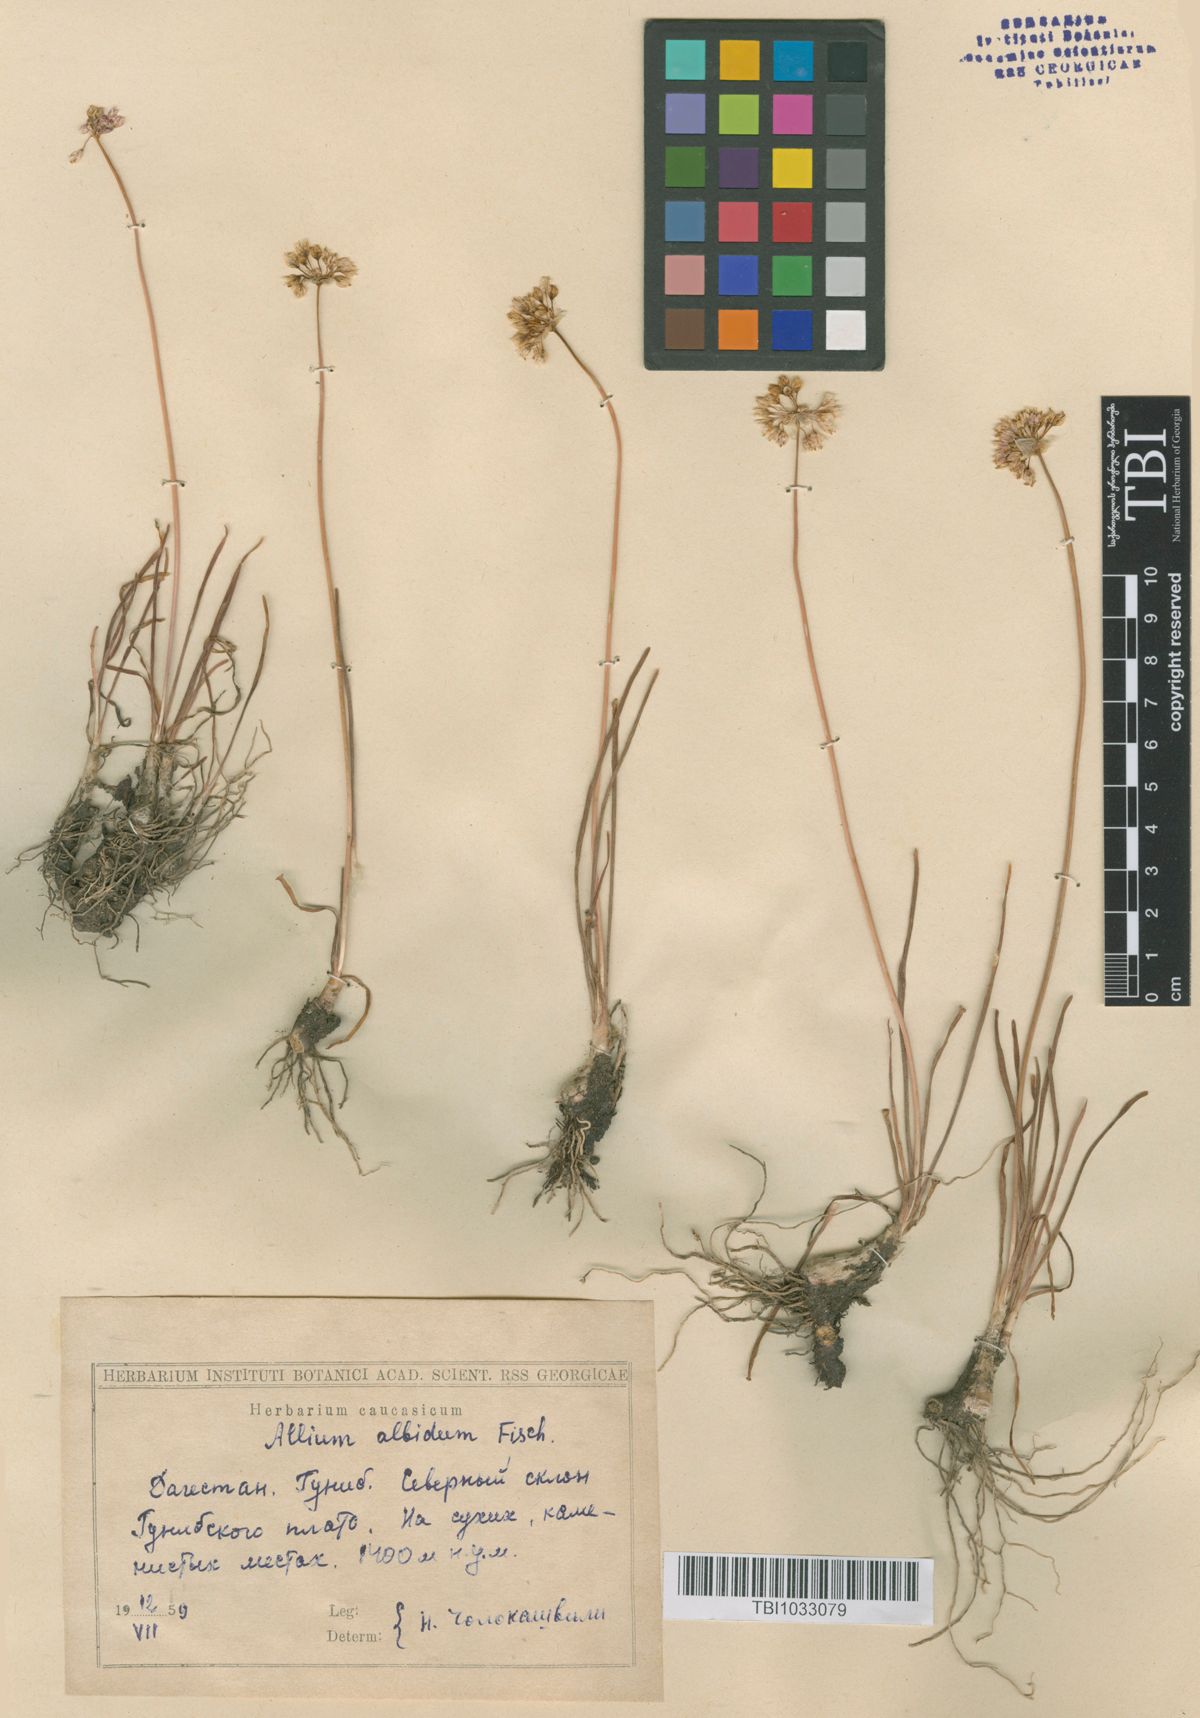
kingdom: Plantae
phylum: Tracheophyta
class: Liliopsida
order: Asparagales
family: Amaryllidaceae
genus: Allium
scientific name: Allium denudatum
